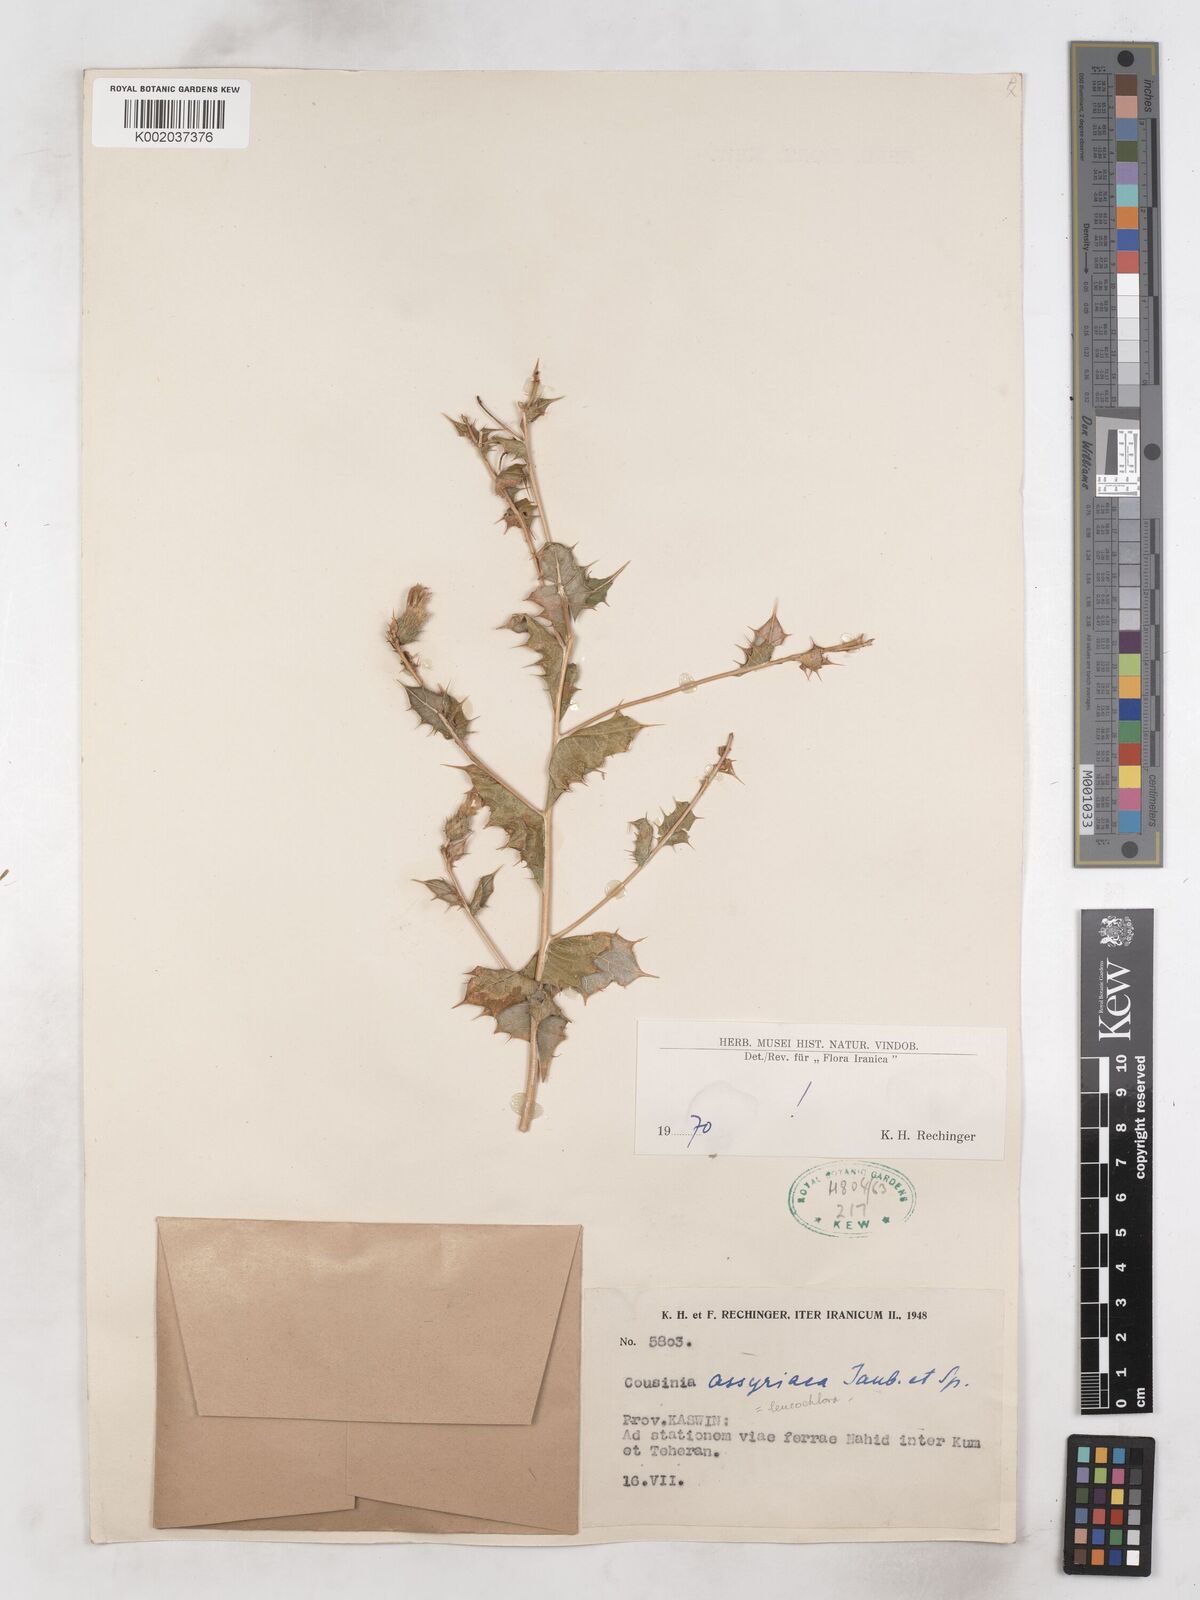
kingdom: Plantae
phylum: Tracheophyta
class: Magnoliopsida
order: Asterales
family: Asteraceae
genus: Cousinia
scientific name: Cousinia assyriaca
